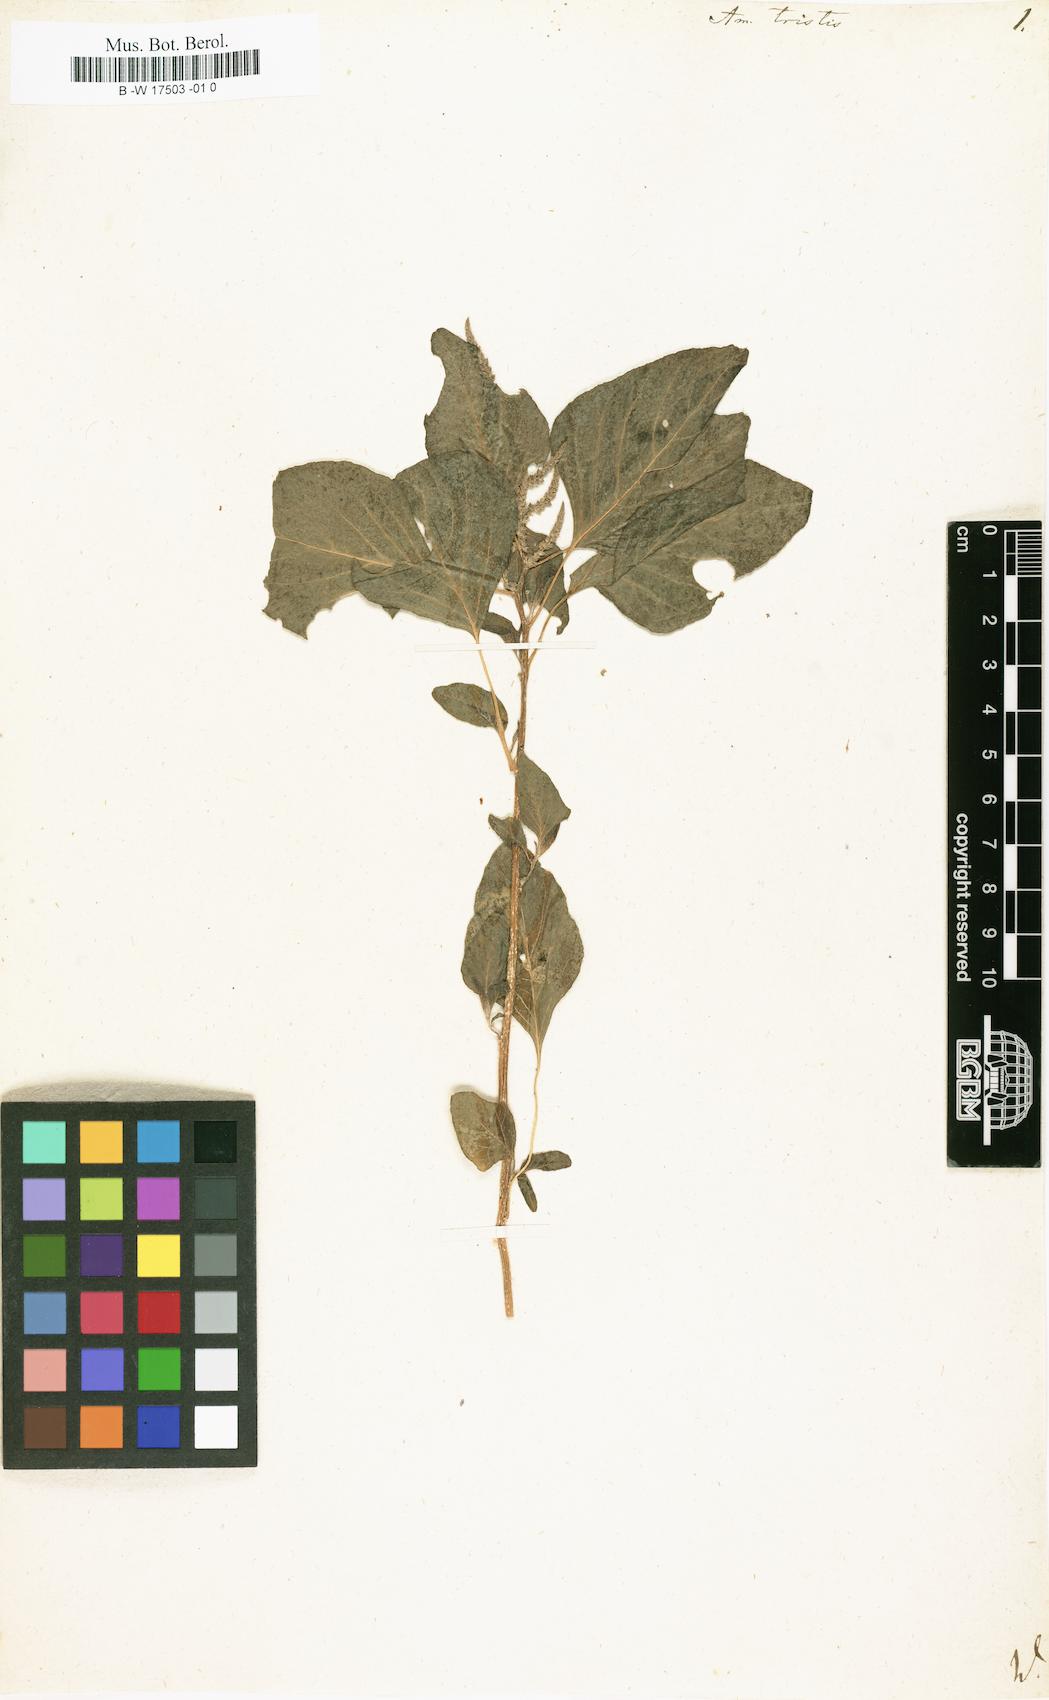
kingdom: Plantae
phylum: Tracheophyta
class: Magnoliopsida
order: Caryophyllales
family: Amaranthaceae
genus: Amaranthus
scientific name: Amaranthus tricolor
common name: Joseph's-coat
